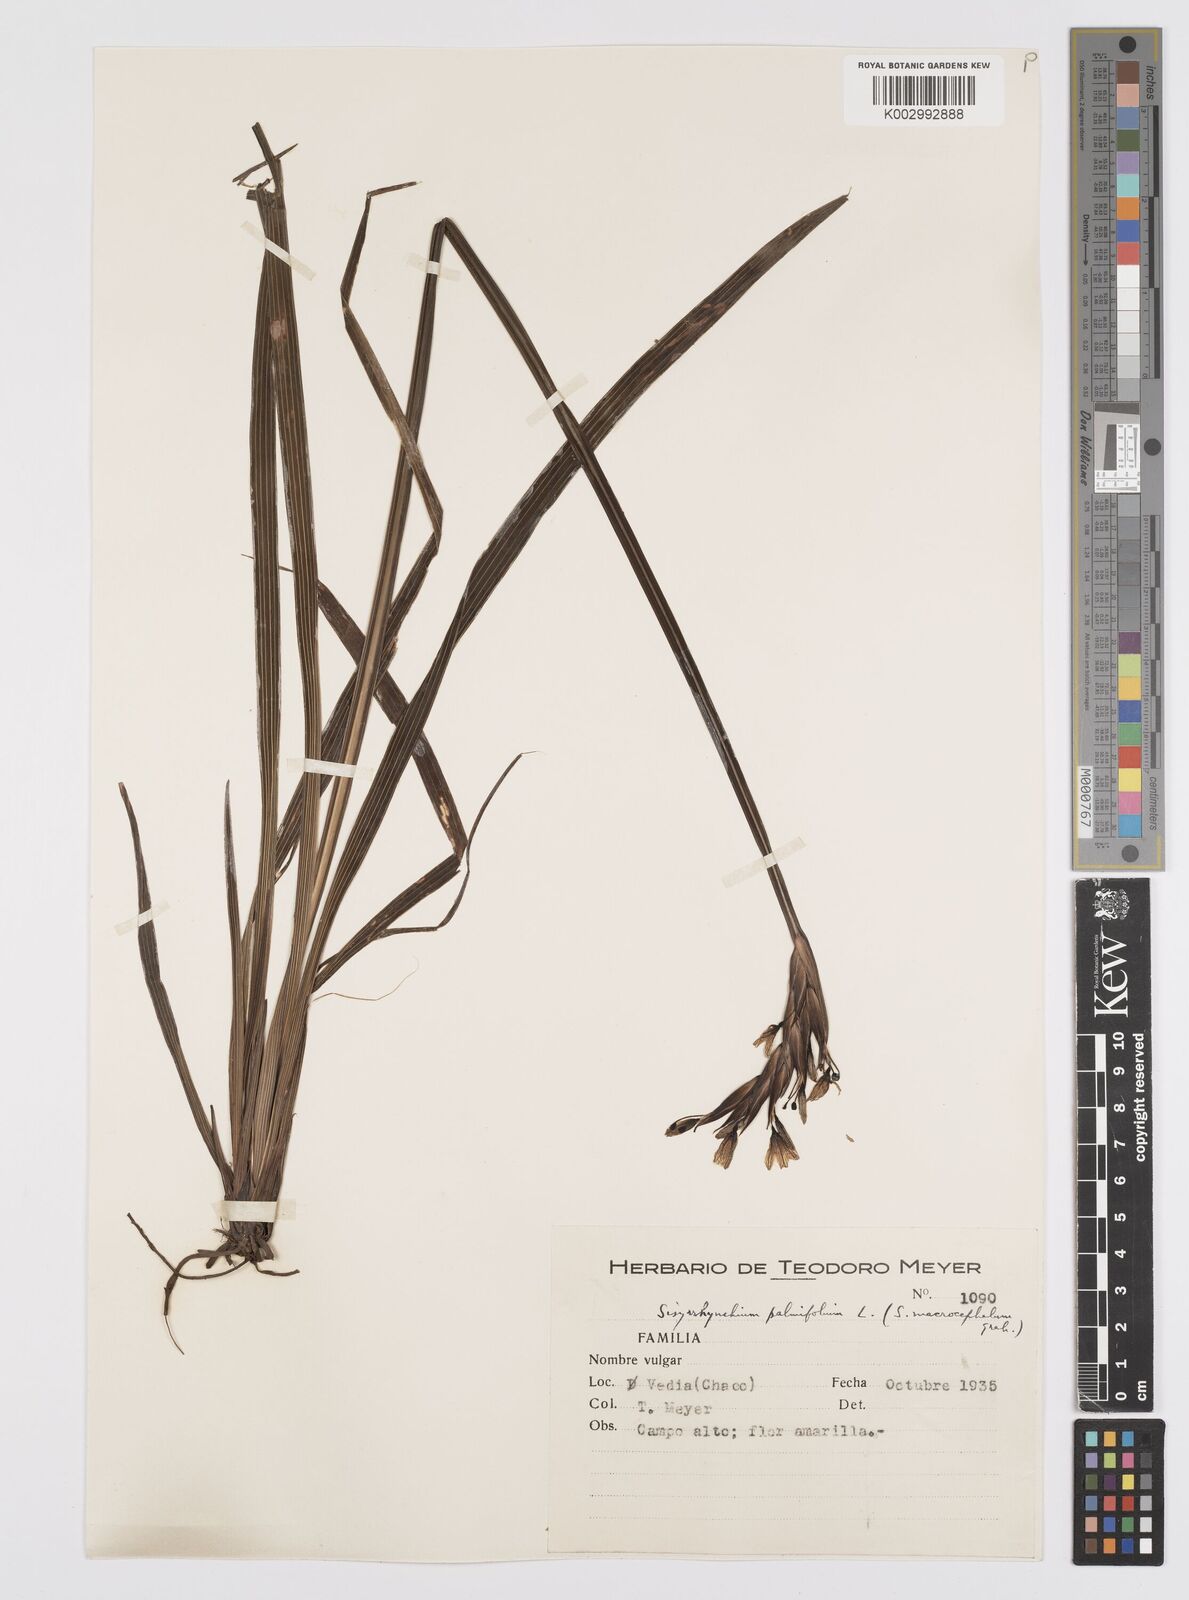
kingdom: Plantae
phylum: Tracheophyta
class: Liliopsida
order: Asparagales
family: Iridaceae
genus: Sisyrinchium
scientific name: Sisyrinchium palmifolium
